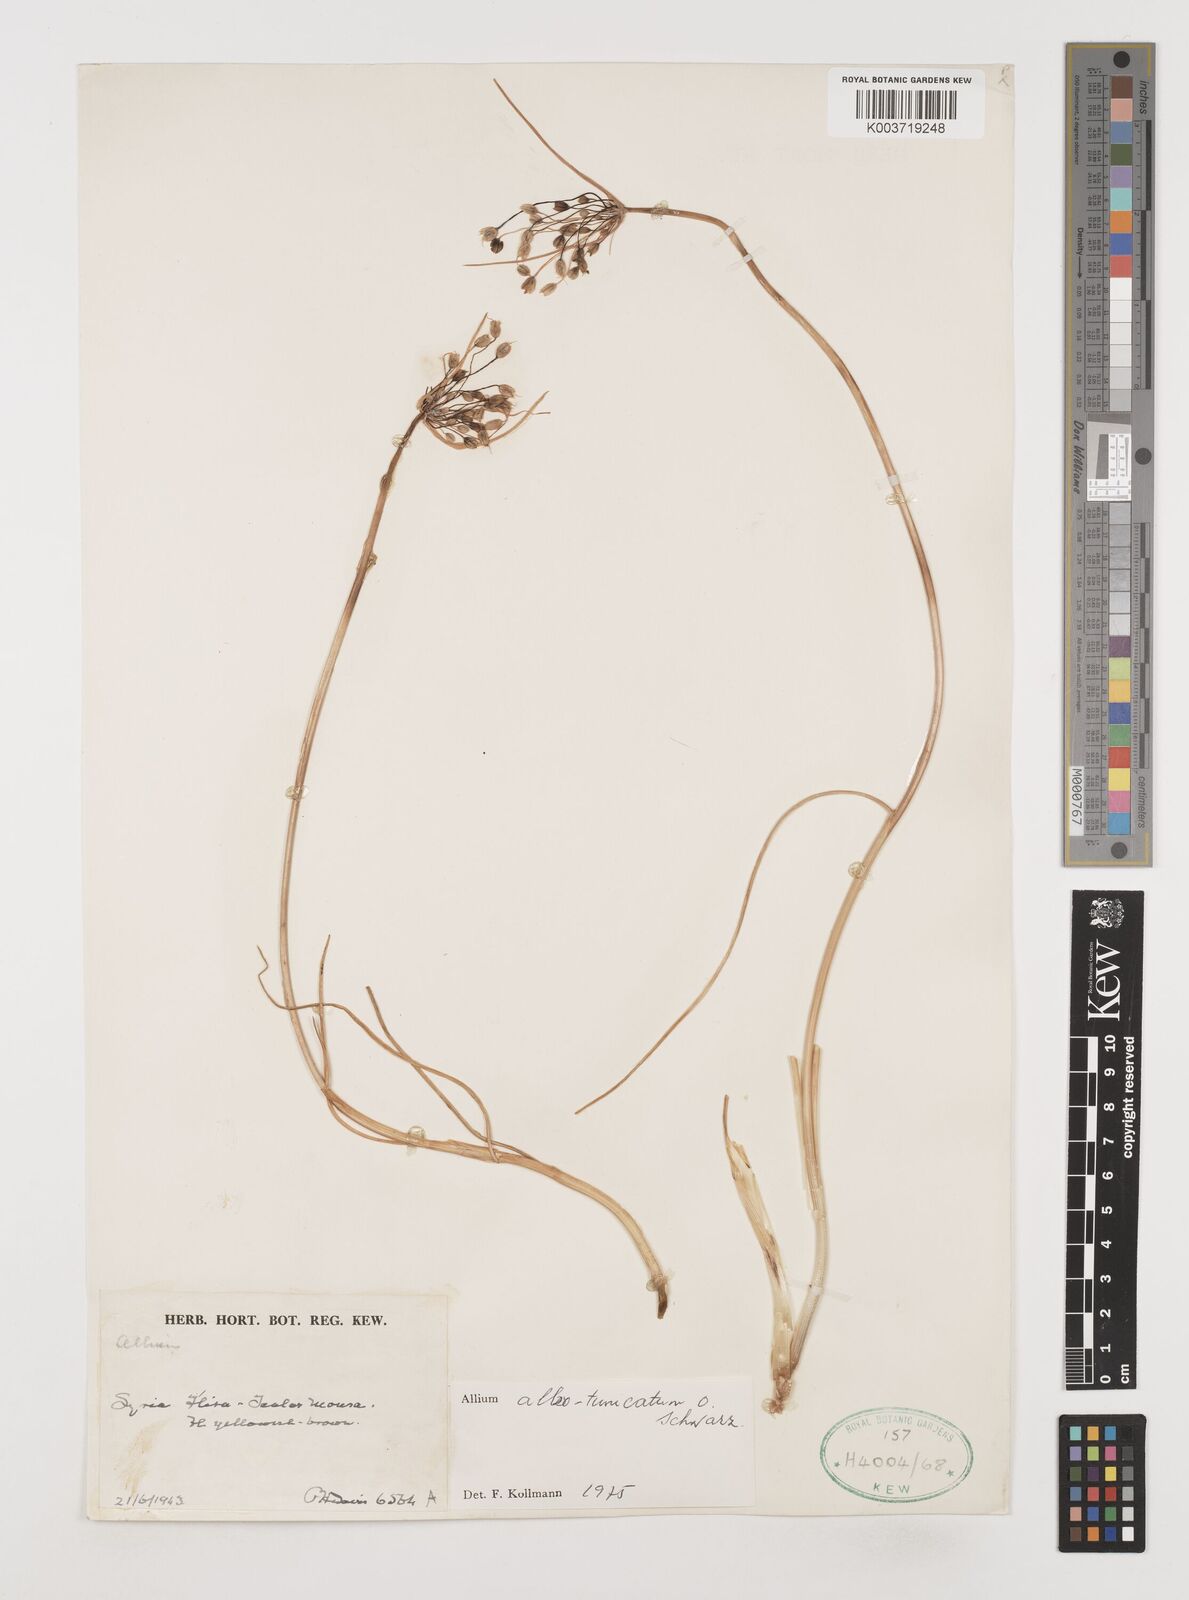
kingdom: Plantae
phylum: Tracheophyta
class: Liliopsida
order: Asparagales
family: Amaryllidaceae
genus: Allium
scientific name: Allium albotunicatum
